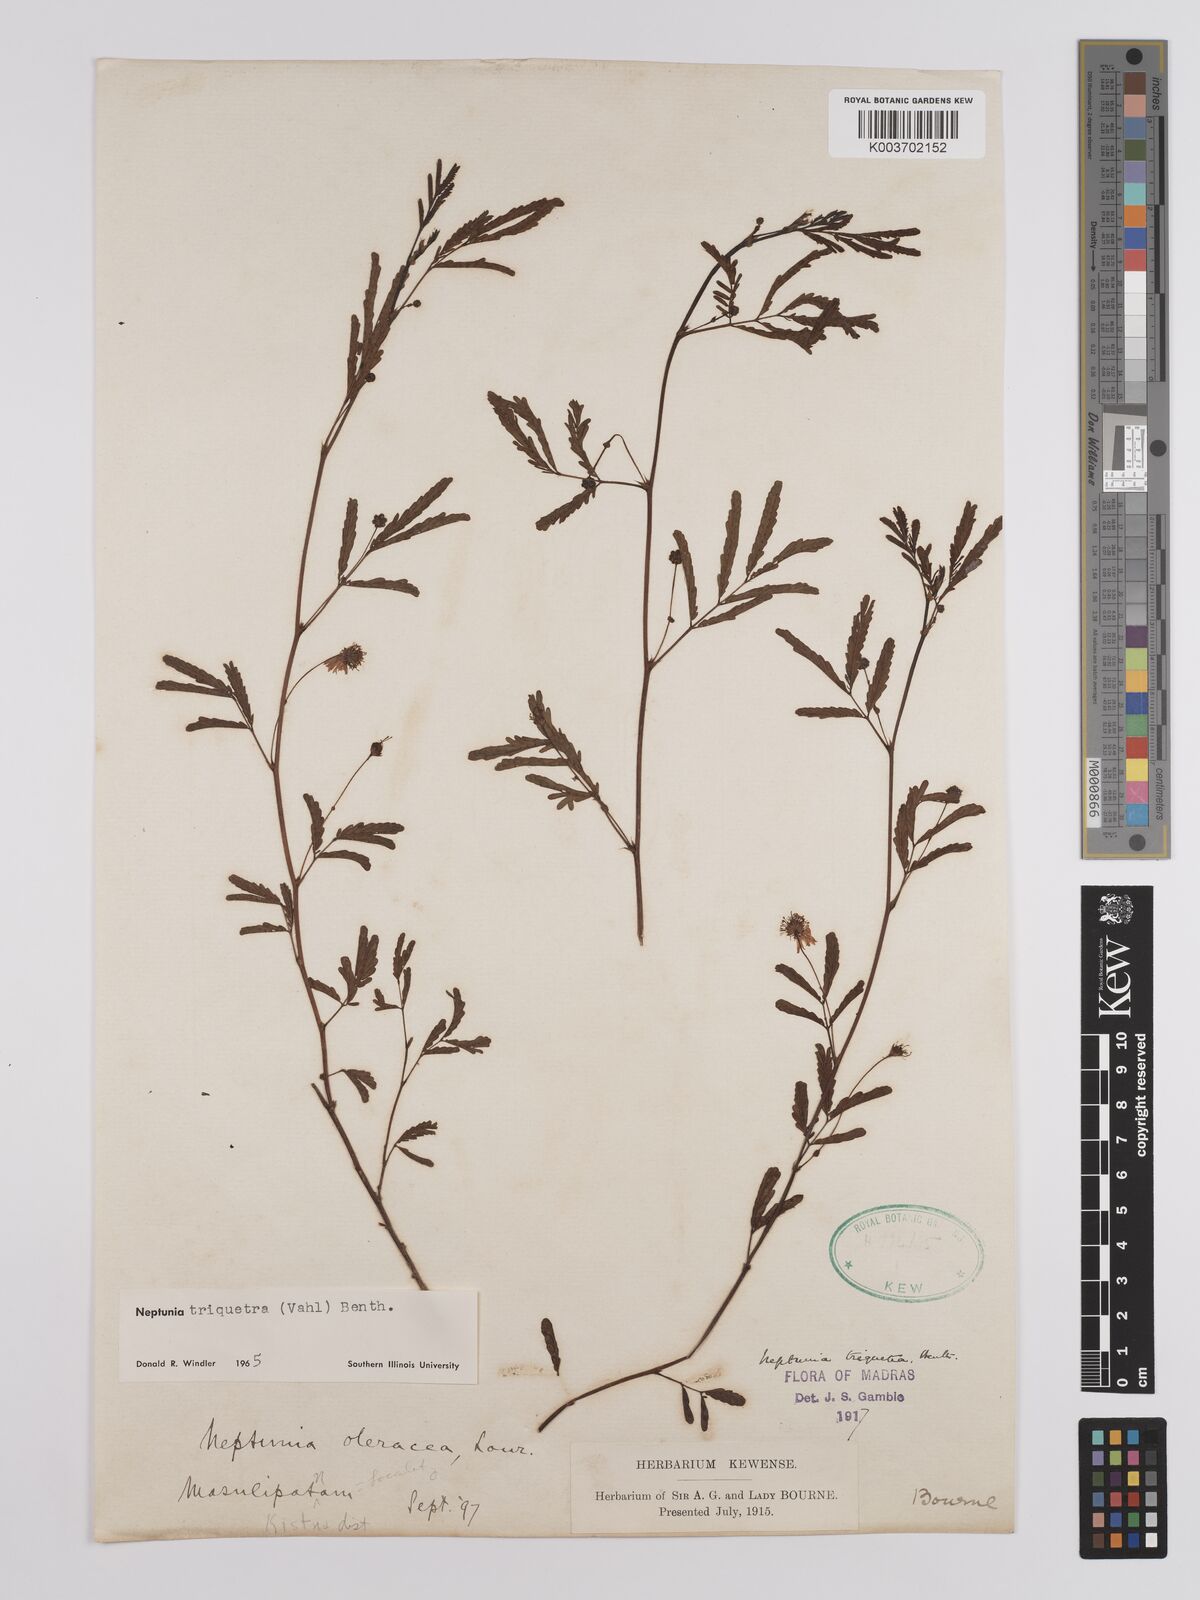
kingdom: Plantae
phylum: Tracheophyta
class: Magnoliopsida
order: Fabales
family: Fabaceae
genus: Neptunia
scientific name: Neptunia triquetra
